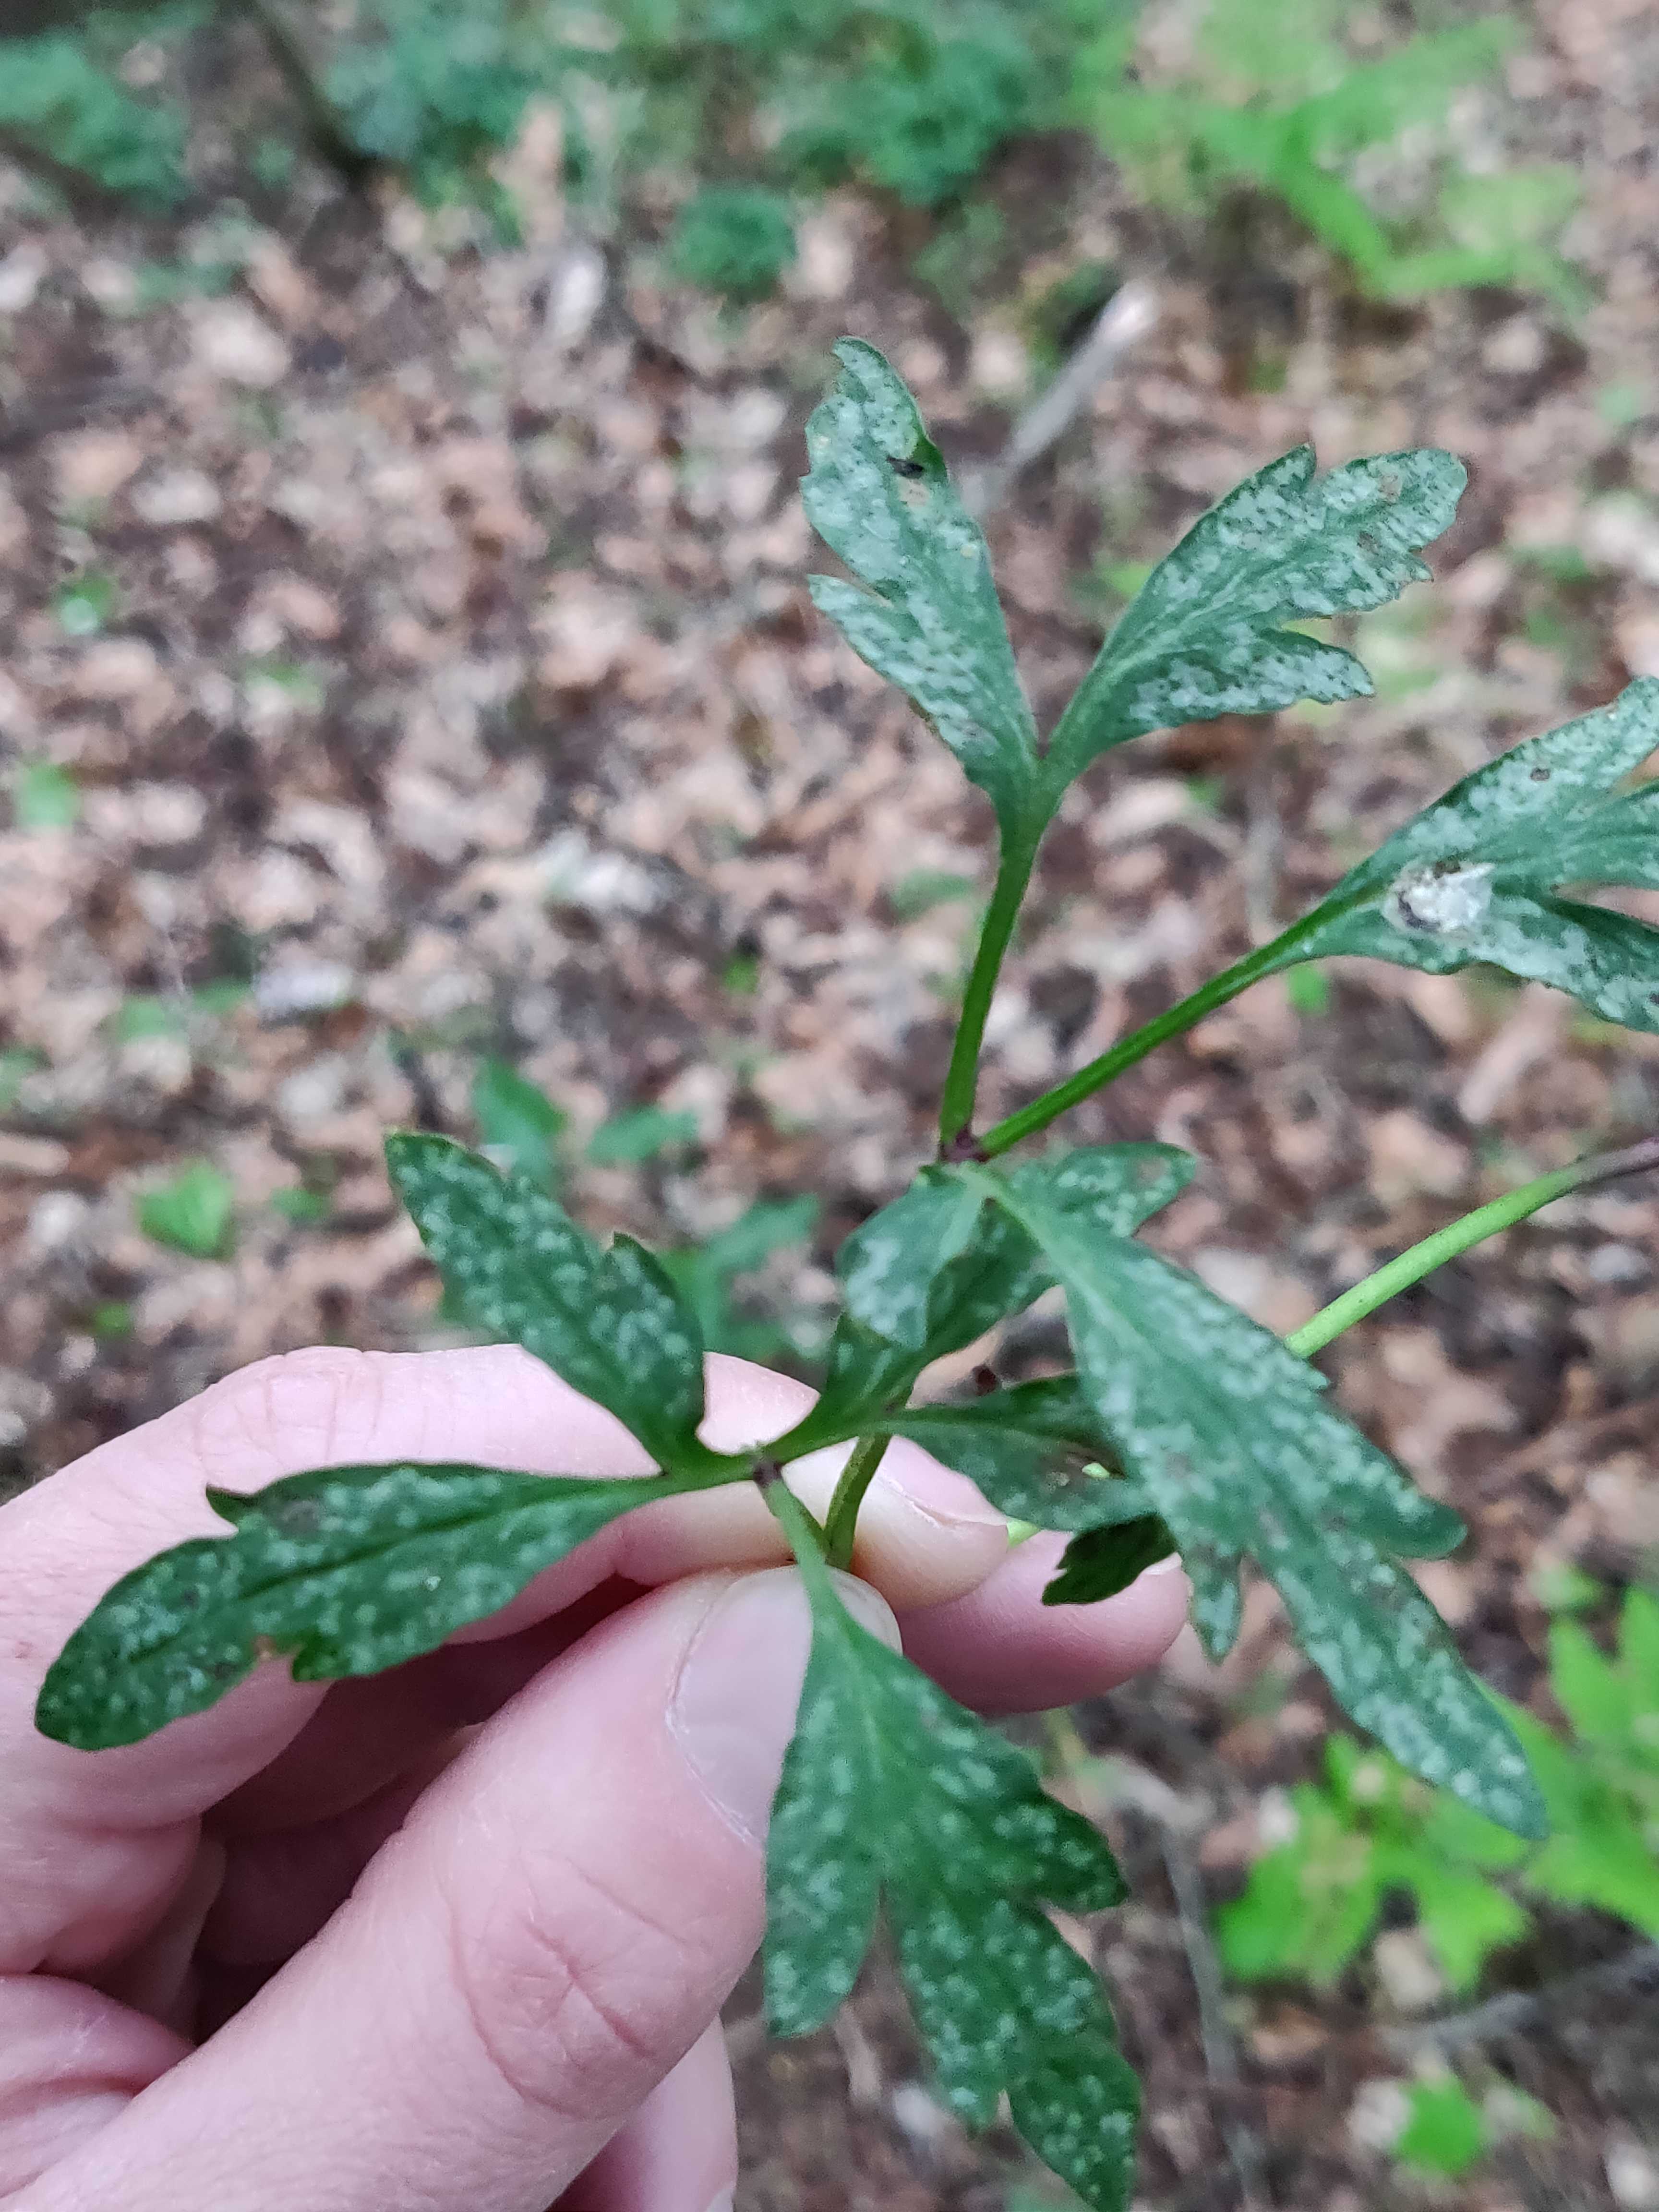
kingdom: Fungi
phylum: Basidiomycota
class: Pucciniomycetes
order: Pucciniales
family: Ochropsoraceae
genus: Ochropsora
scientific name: Ochropsora ariae
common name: anemone-okkerpletrust
